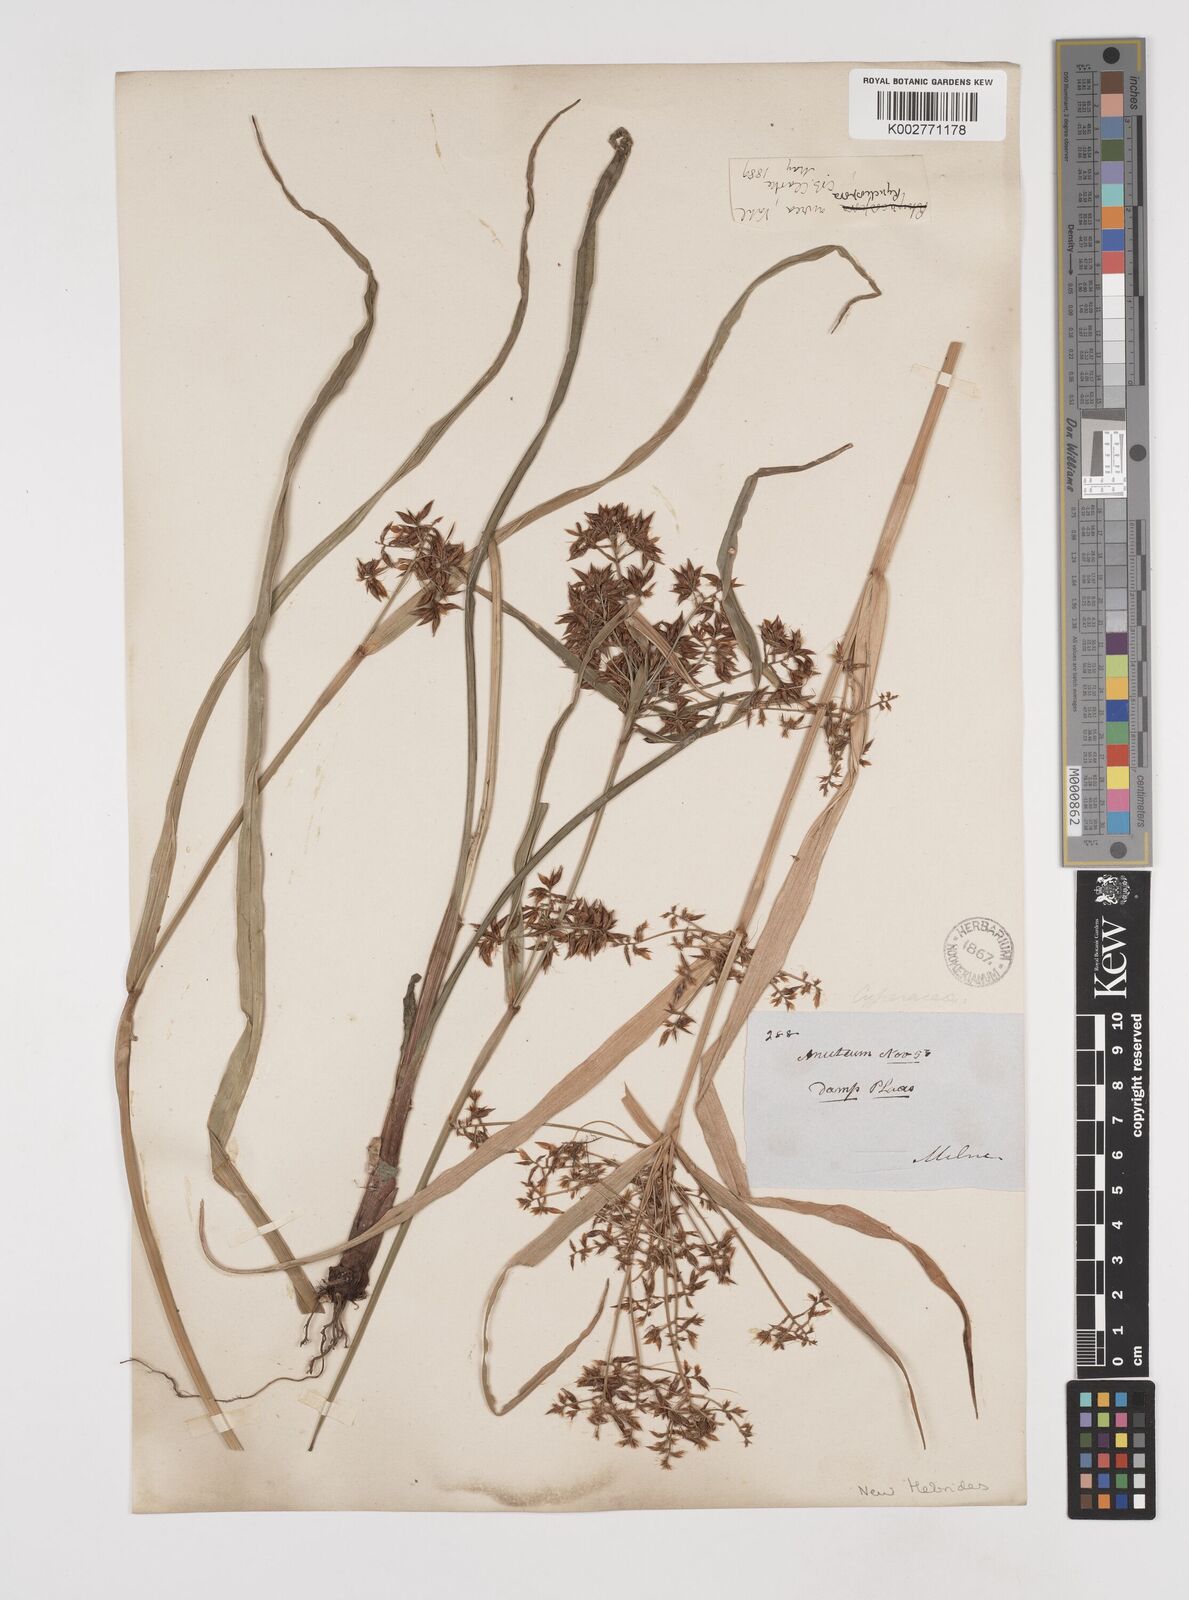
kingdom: Plantae
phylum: Tracheophyta
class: Liliopsida
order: Poales
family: Cyperaceae
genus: Rhynchospora
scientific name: Rhynchospora corymbosa
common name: Golden beak sedge
